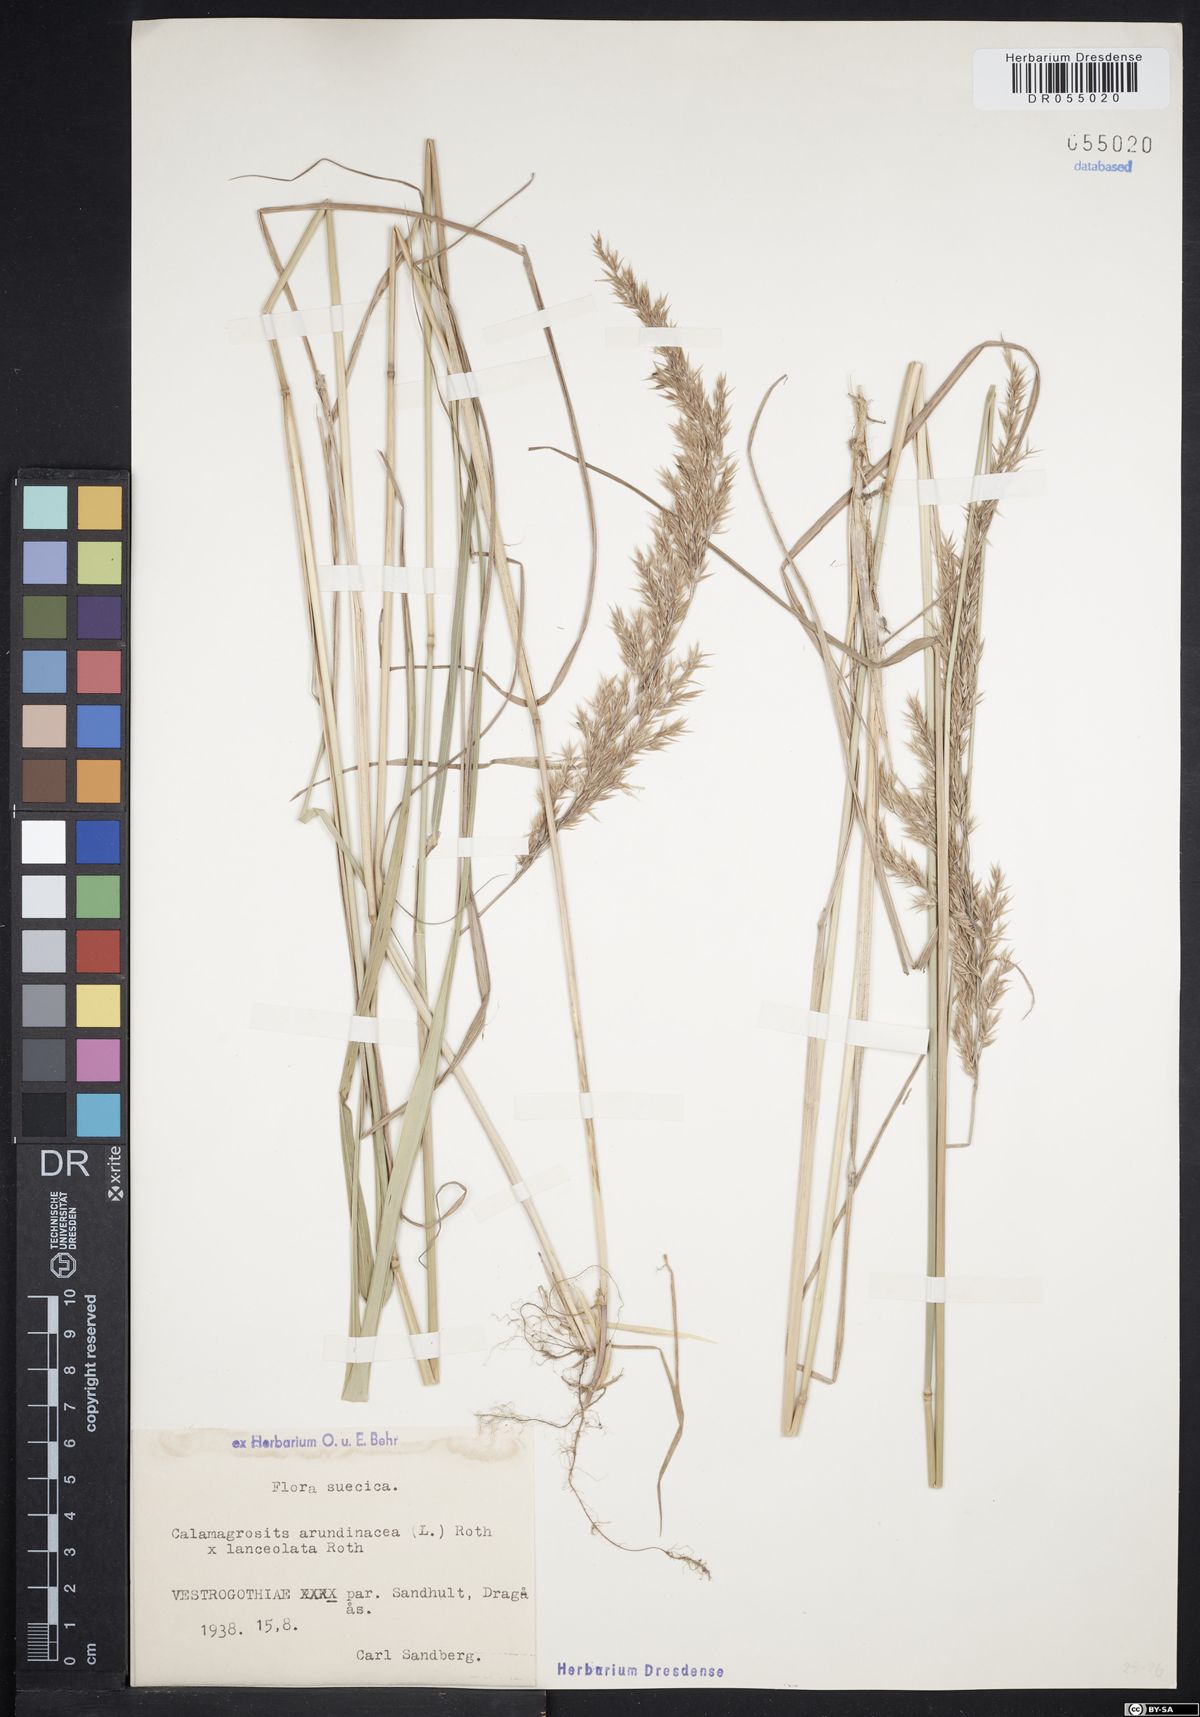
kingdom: Plantae
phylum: Tracheophyta
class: Liliopsida
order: Poales
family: Poaceae
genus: Calamagrostis
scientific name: Calamagrostis hartmaniana
